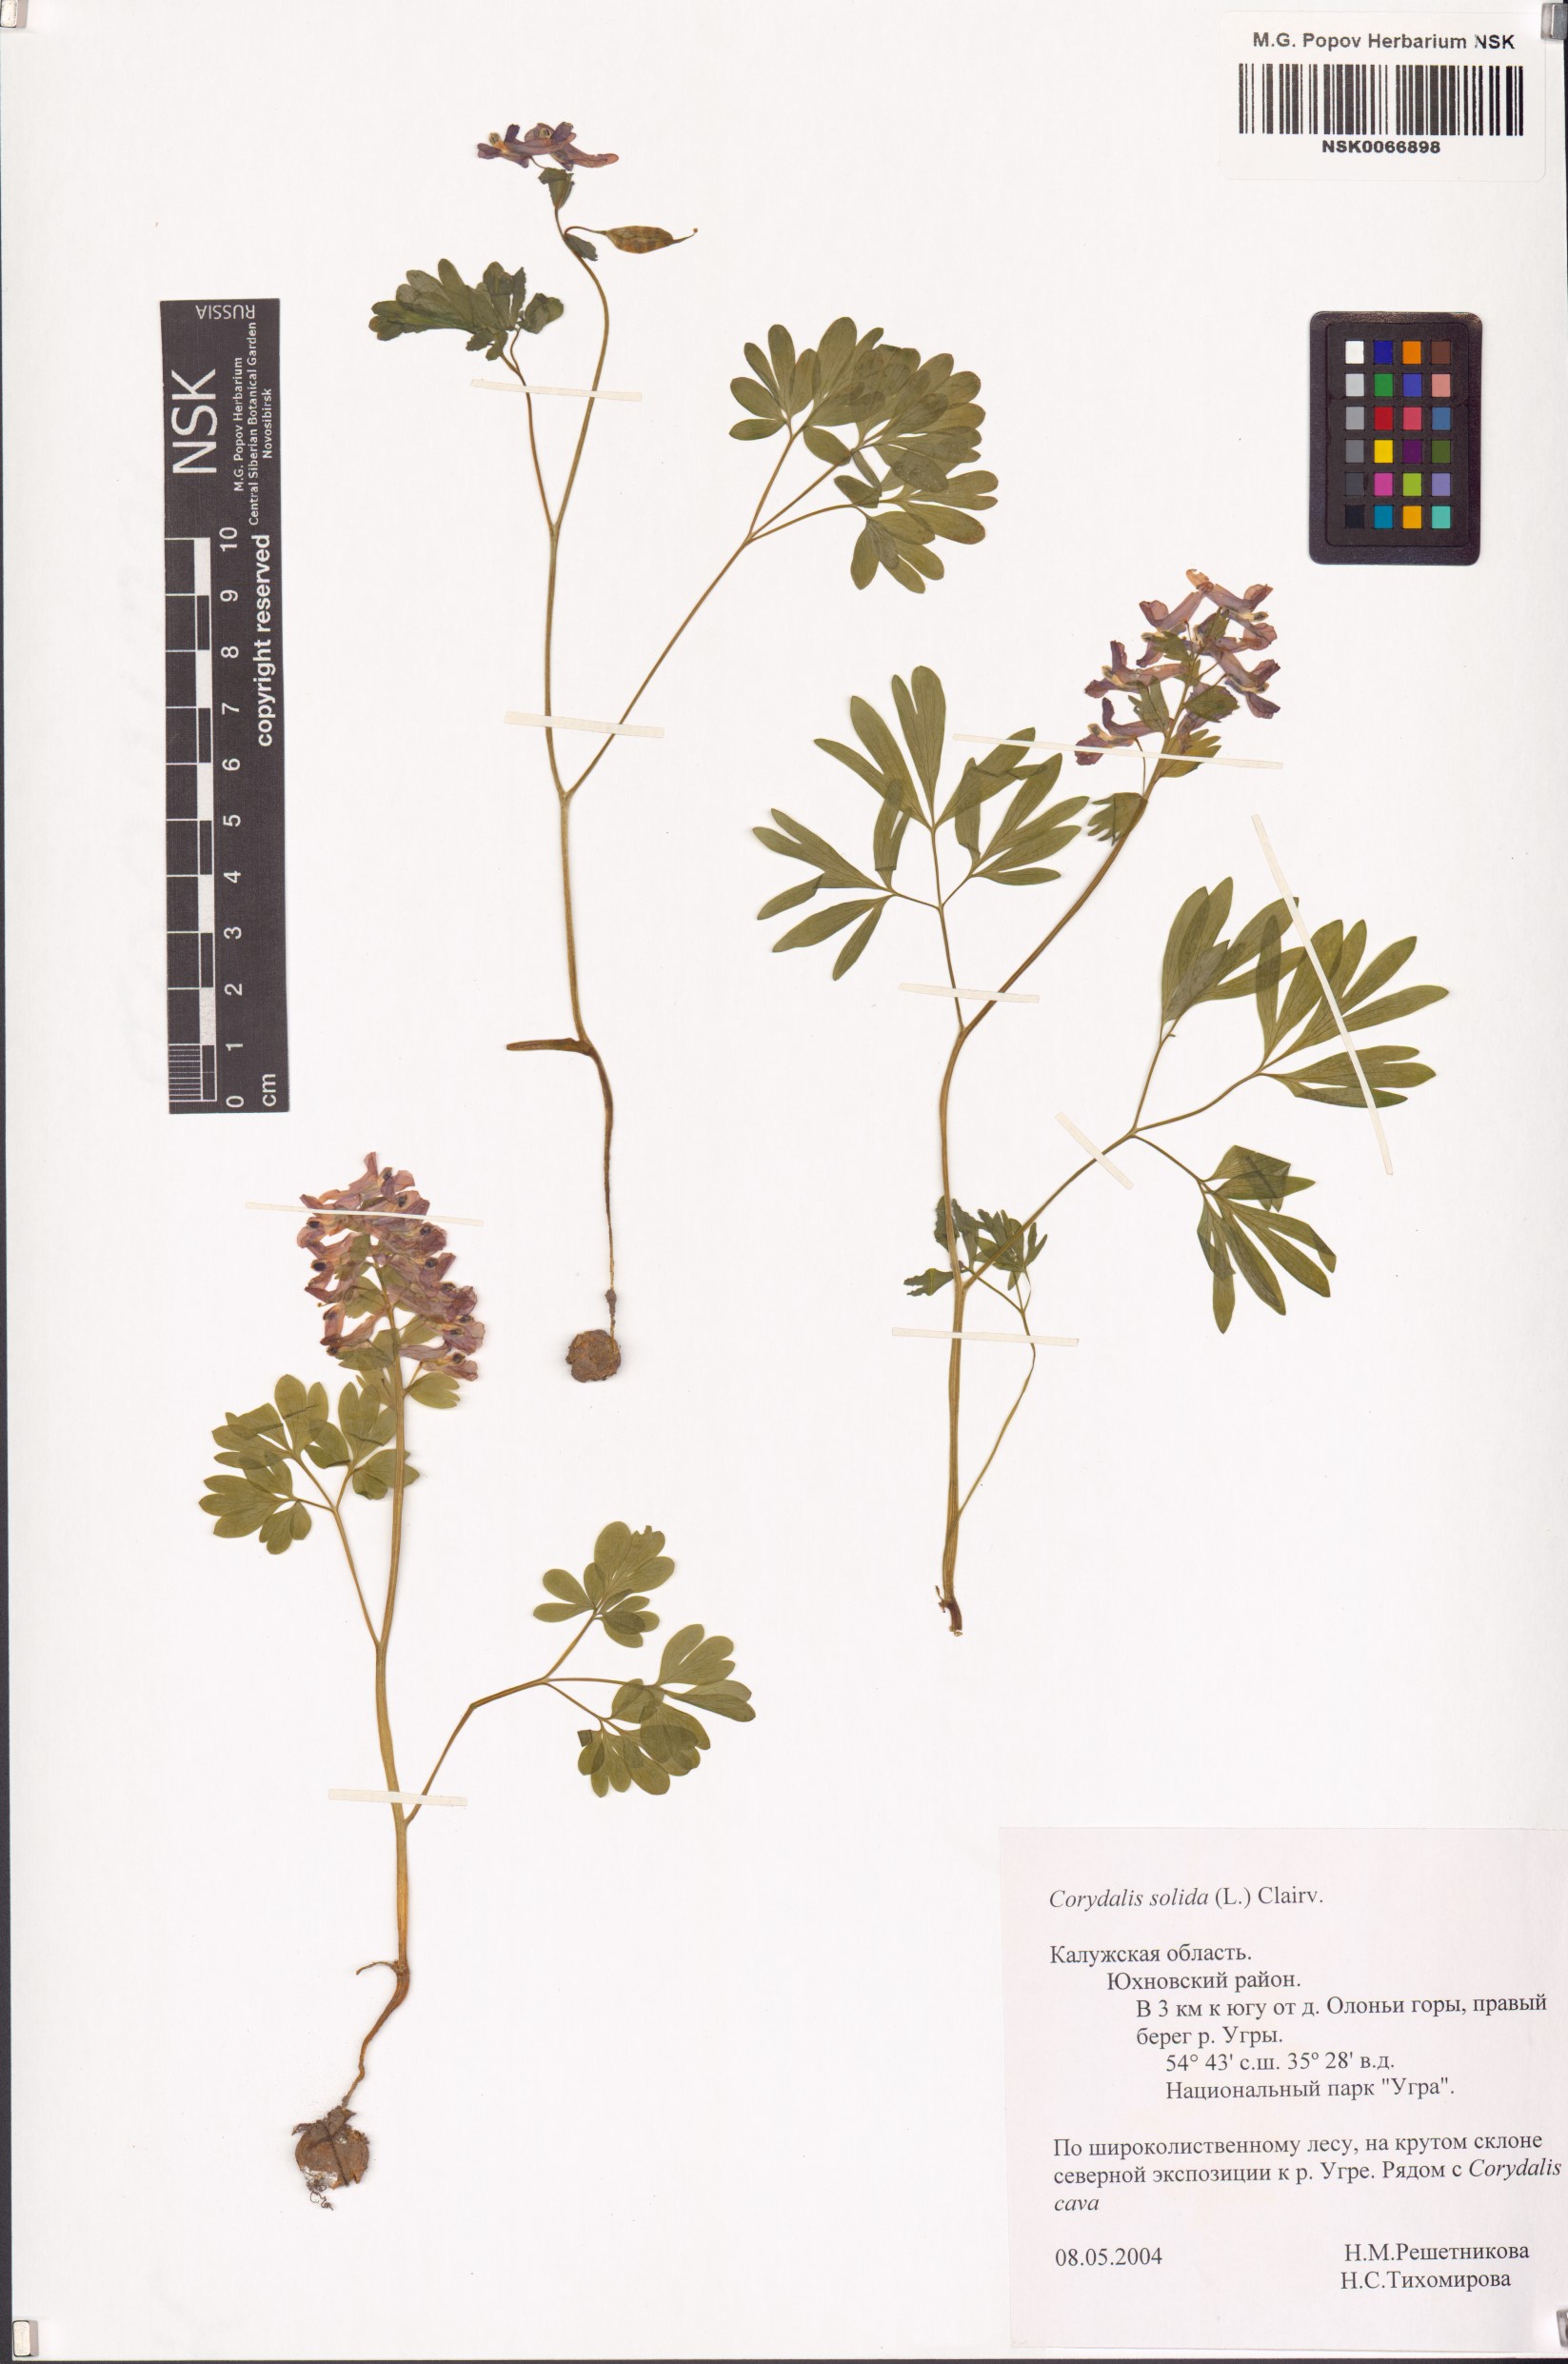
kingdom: Plantae
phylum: Tracheophyta
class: Magnoliopsida
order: Ranunculales
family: Papaveraceae
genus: Corydalis
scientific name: Corydalis solida
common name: Bird-in-a-bush
